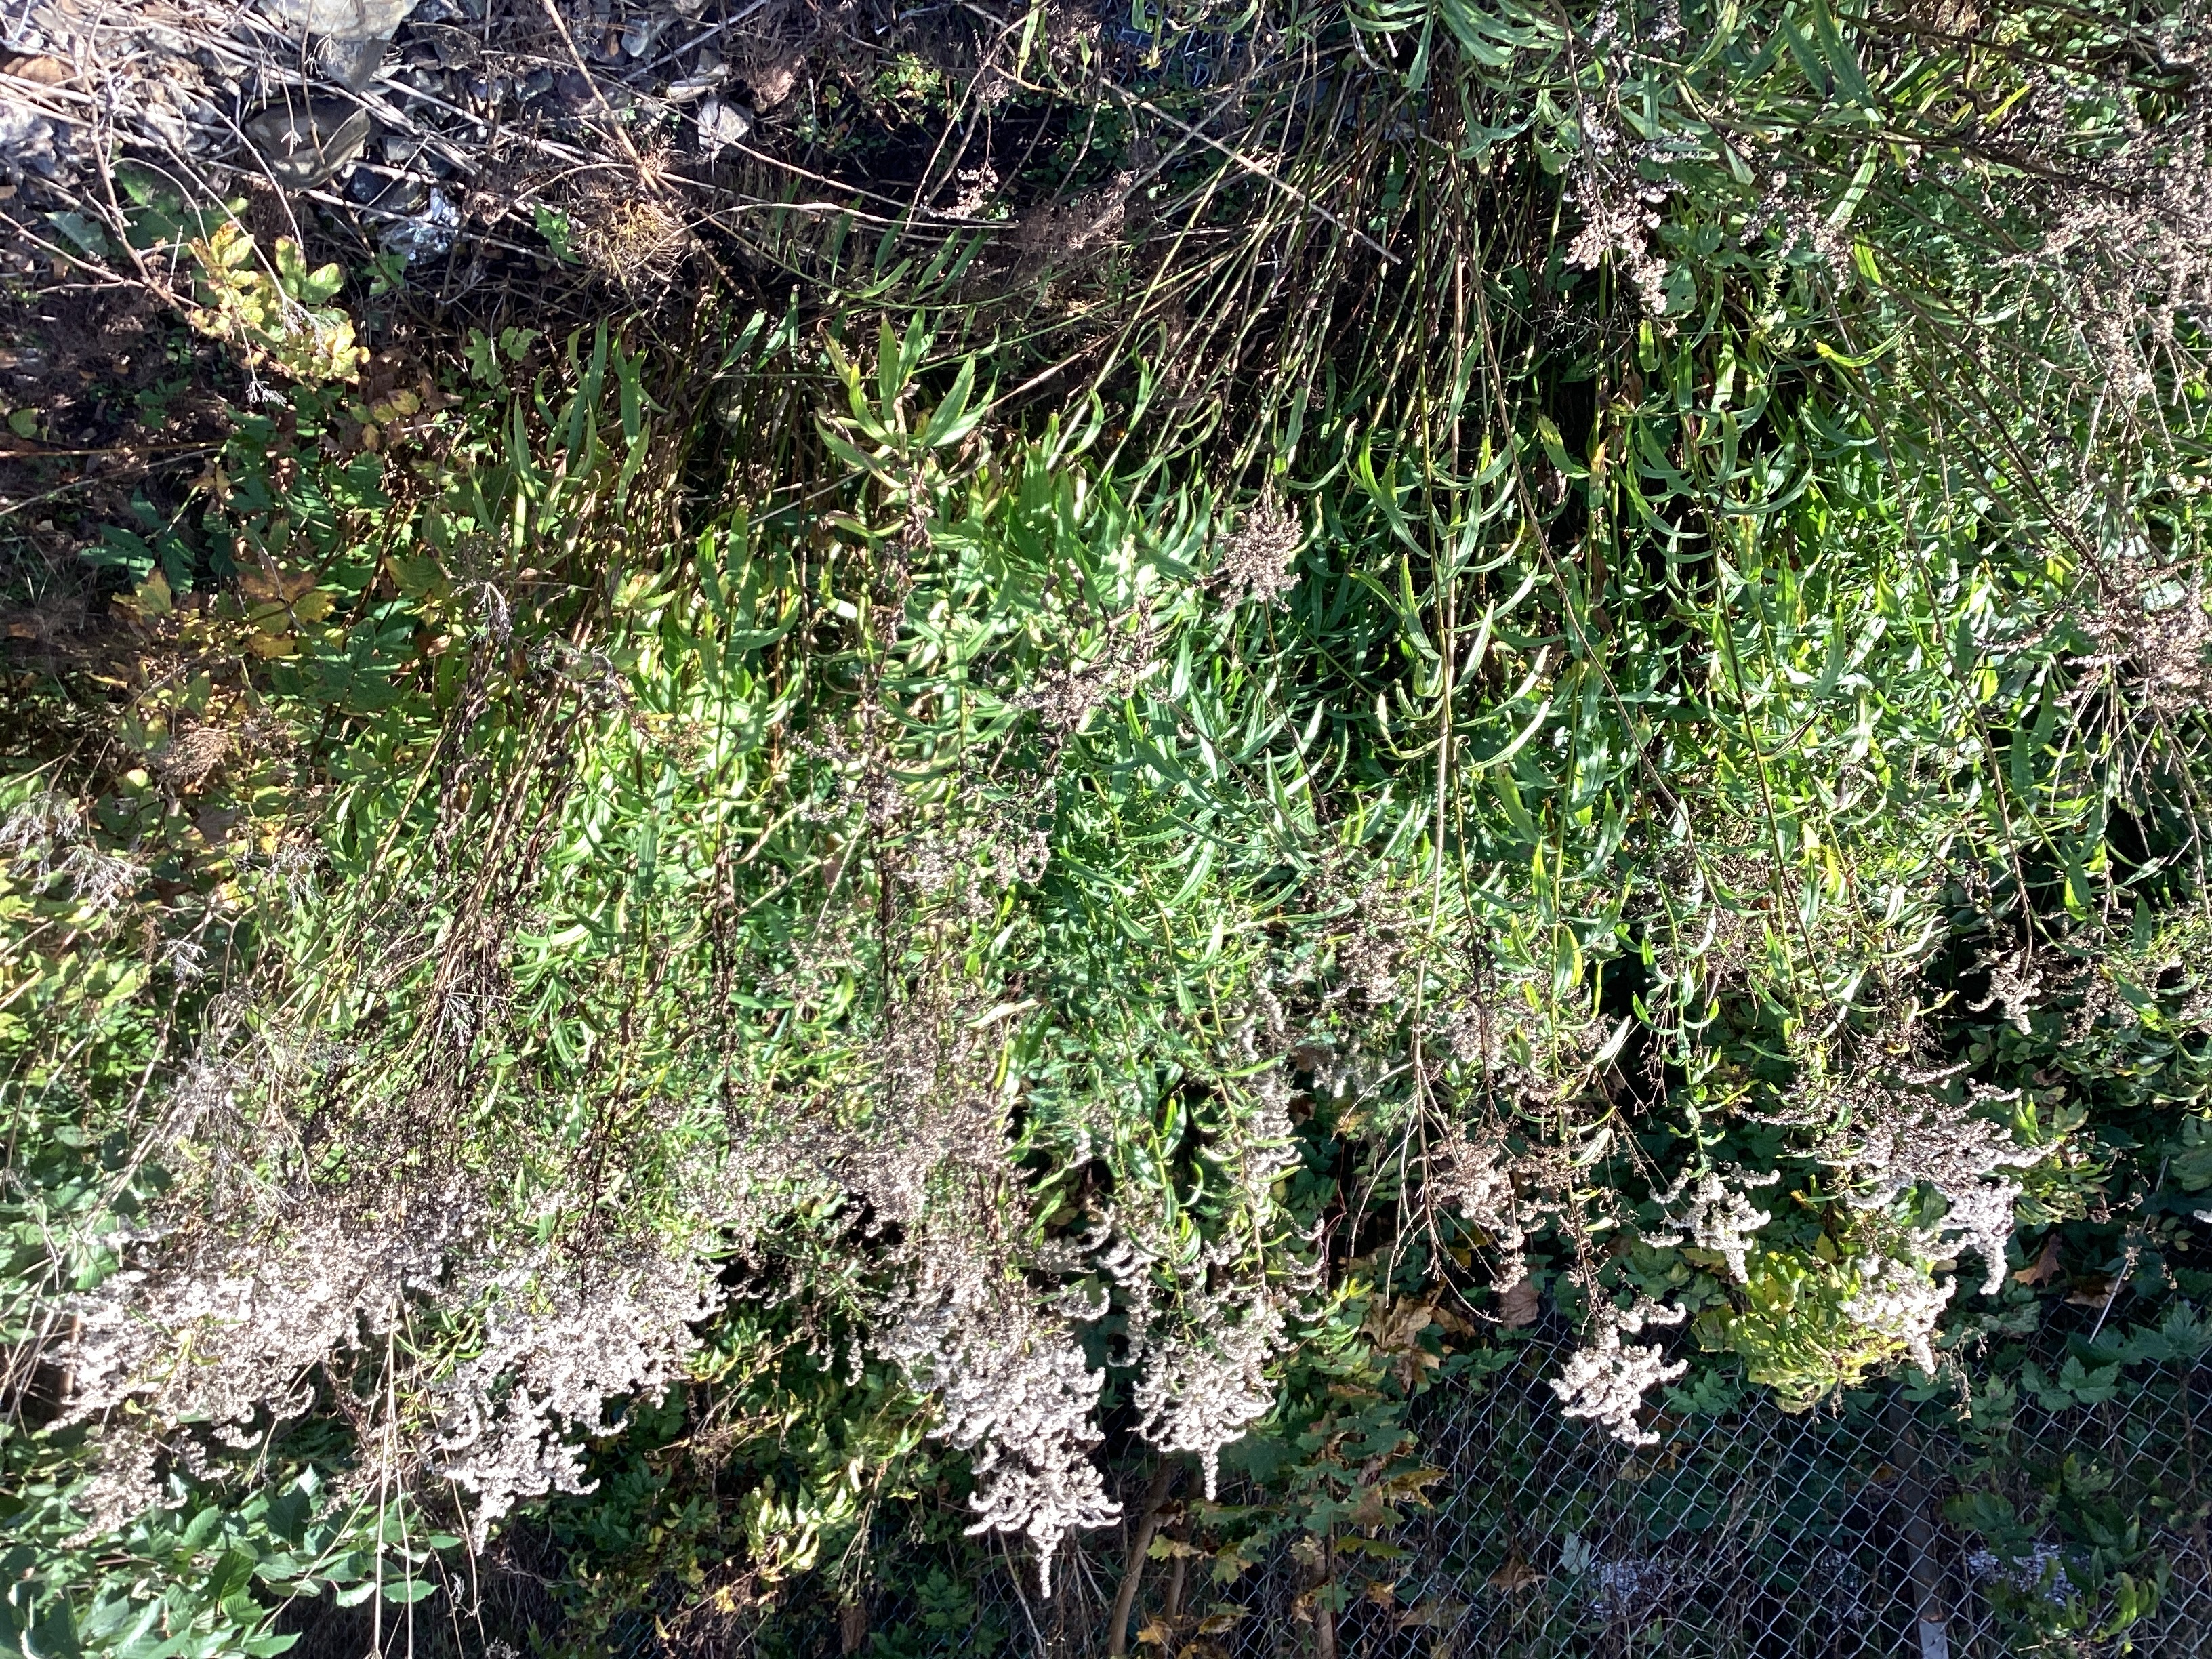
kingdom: Plantae
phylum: Tracheophyta
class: Magnoliopsida
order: Asterales
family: Asteraceae
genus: Solidago
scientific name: Solidago canadensis
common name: kanadagullris
